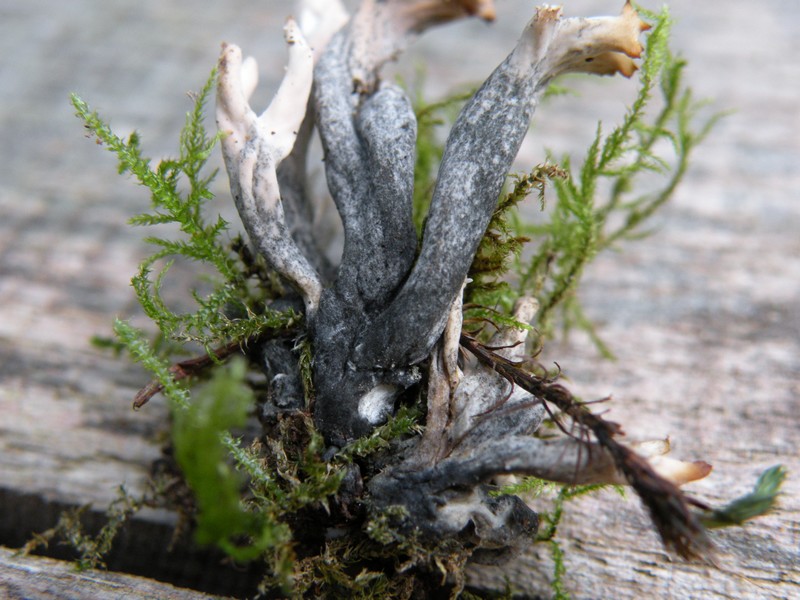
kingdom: Fungi
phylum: Ascomycota
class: Sordariomycetes
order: Sordariales
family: Helminthosphaeriaceae
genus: Helminthosphaeria
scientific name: Helminthosphaeria clavariarum
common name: trold-svampesnyltekerne
